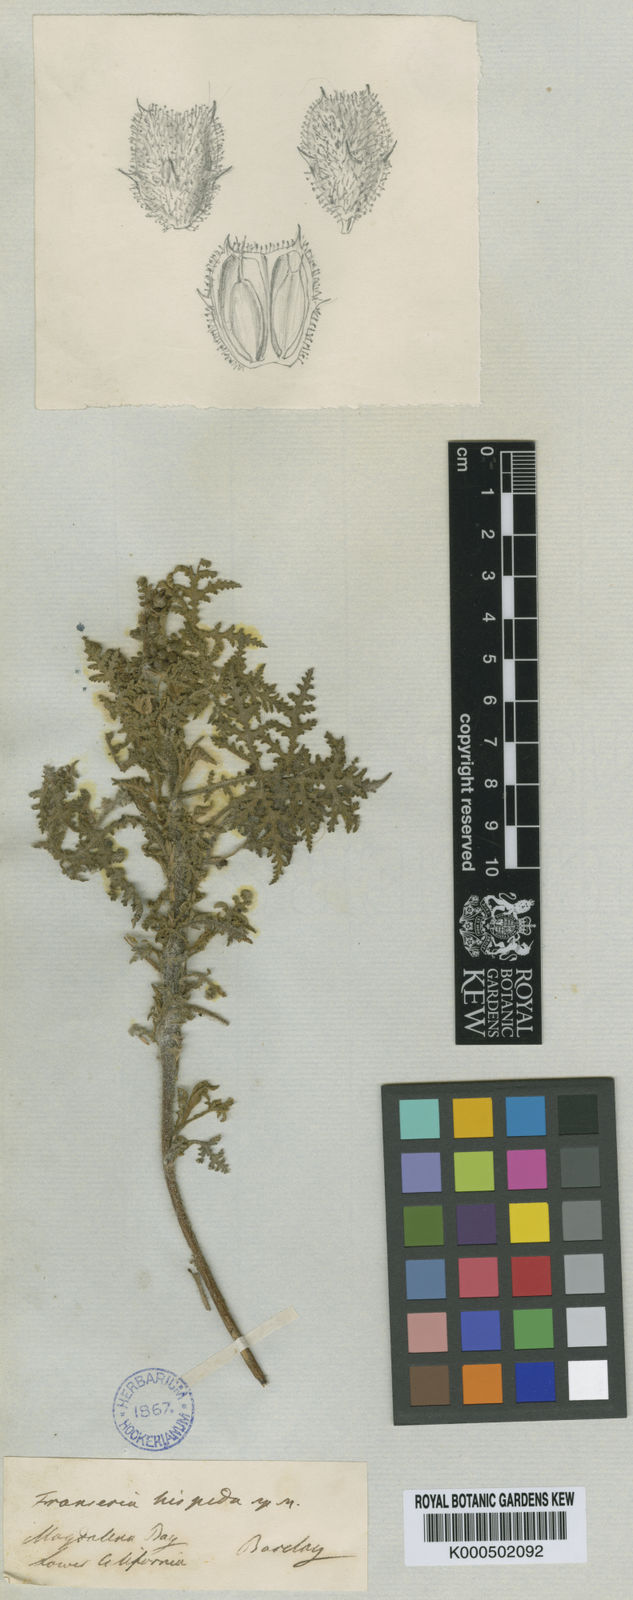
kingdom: Plantae
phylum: Tracheophyta
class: Magnoliopsida
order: Asterales
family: Asteraceae
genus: Ambrosia
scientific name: Ambrosia hispida
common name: Coastal ragweed
